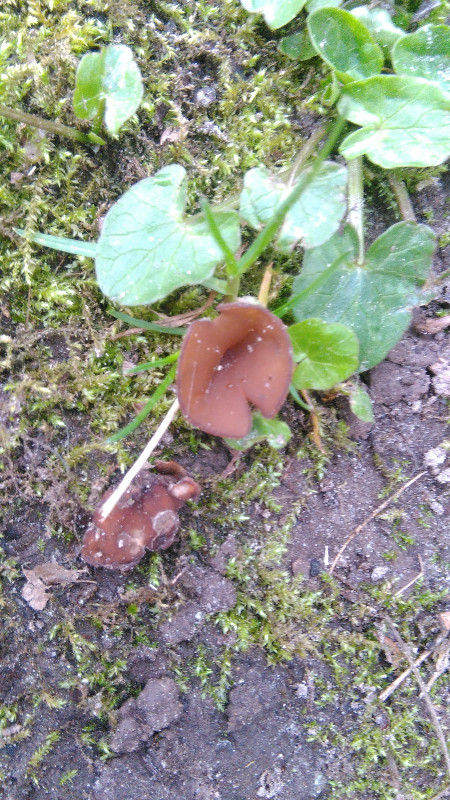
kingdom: Fungi
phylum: Ascomycota
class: Leotiomycetes
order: Helotiales
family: Sclerotiniaceae
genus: Dumontinia
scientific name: Dumontinia tuberosa
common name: anemone-knoldskive
